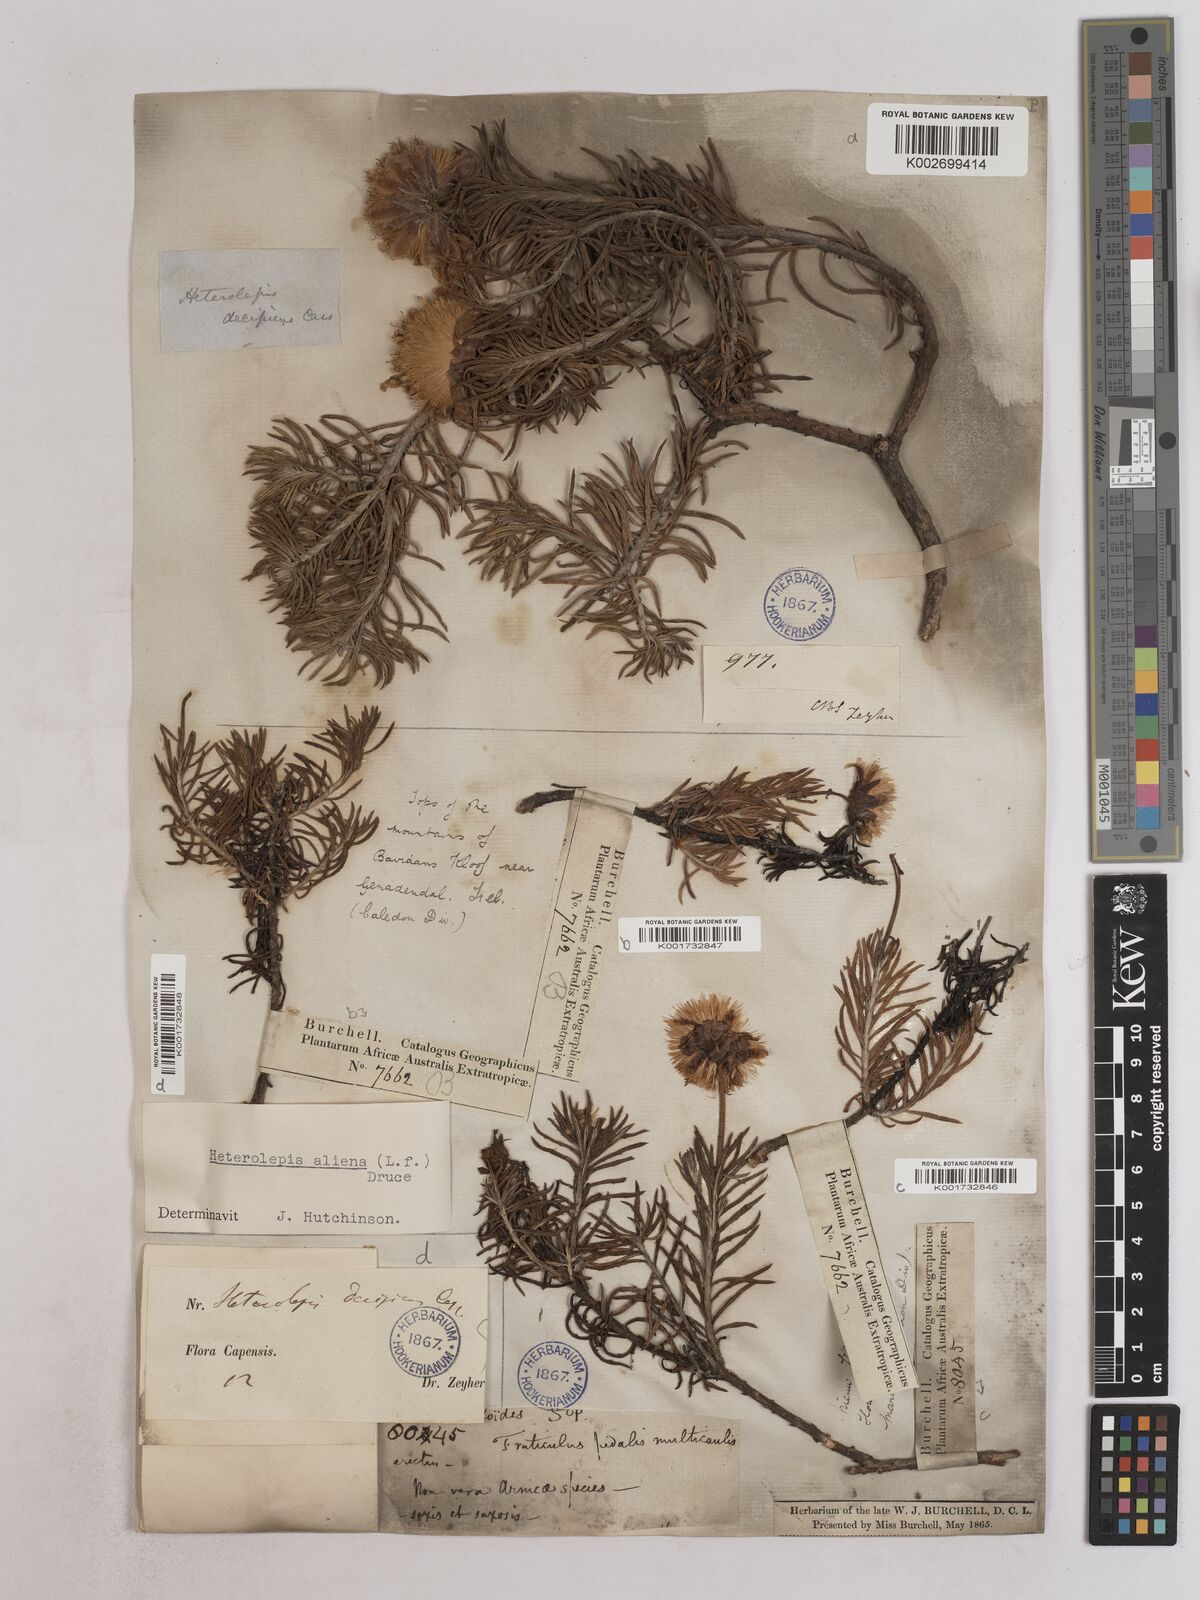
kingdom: Plantae
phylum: Tracheophyta
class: Magnoliopsida
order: Asterales
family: Asteraceae
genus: Heterolepis
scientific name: Heterolepis aliena
